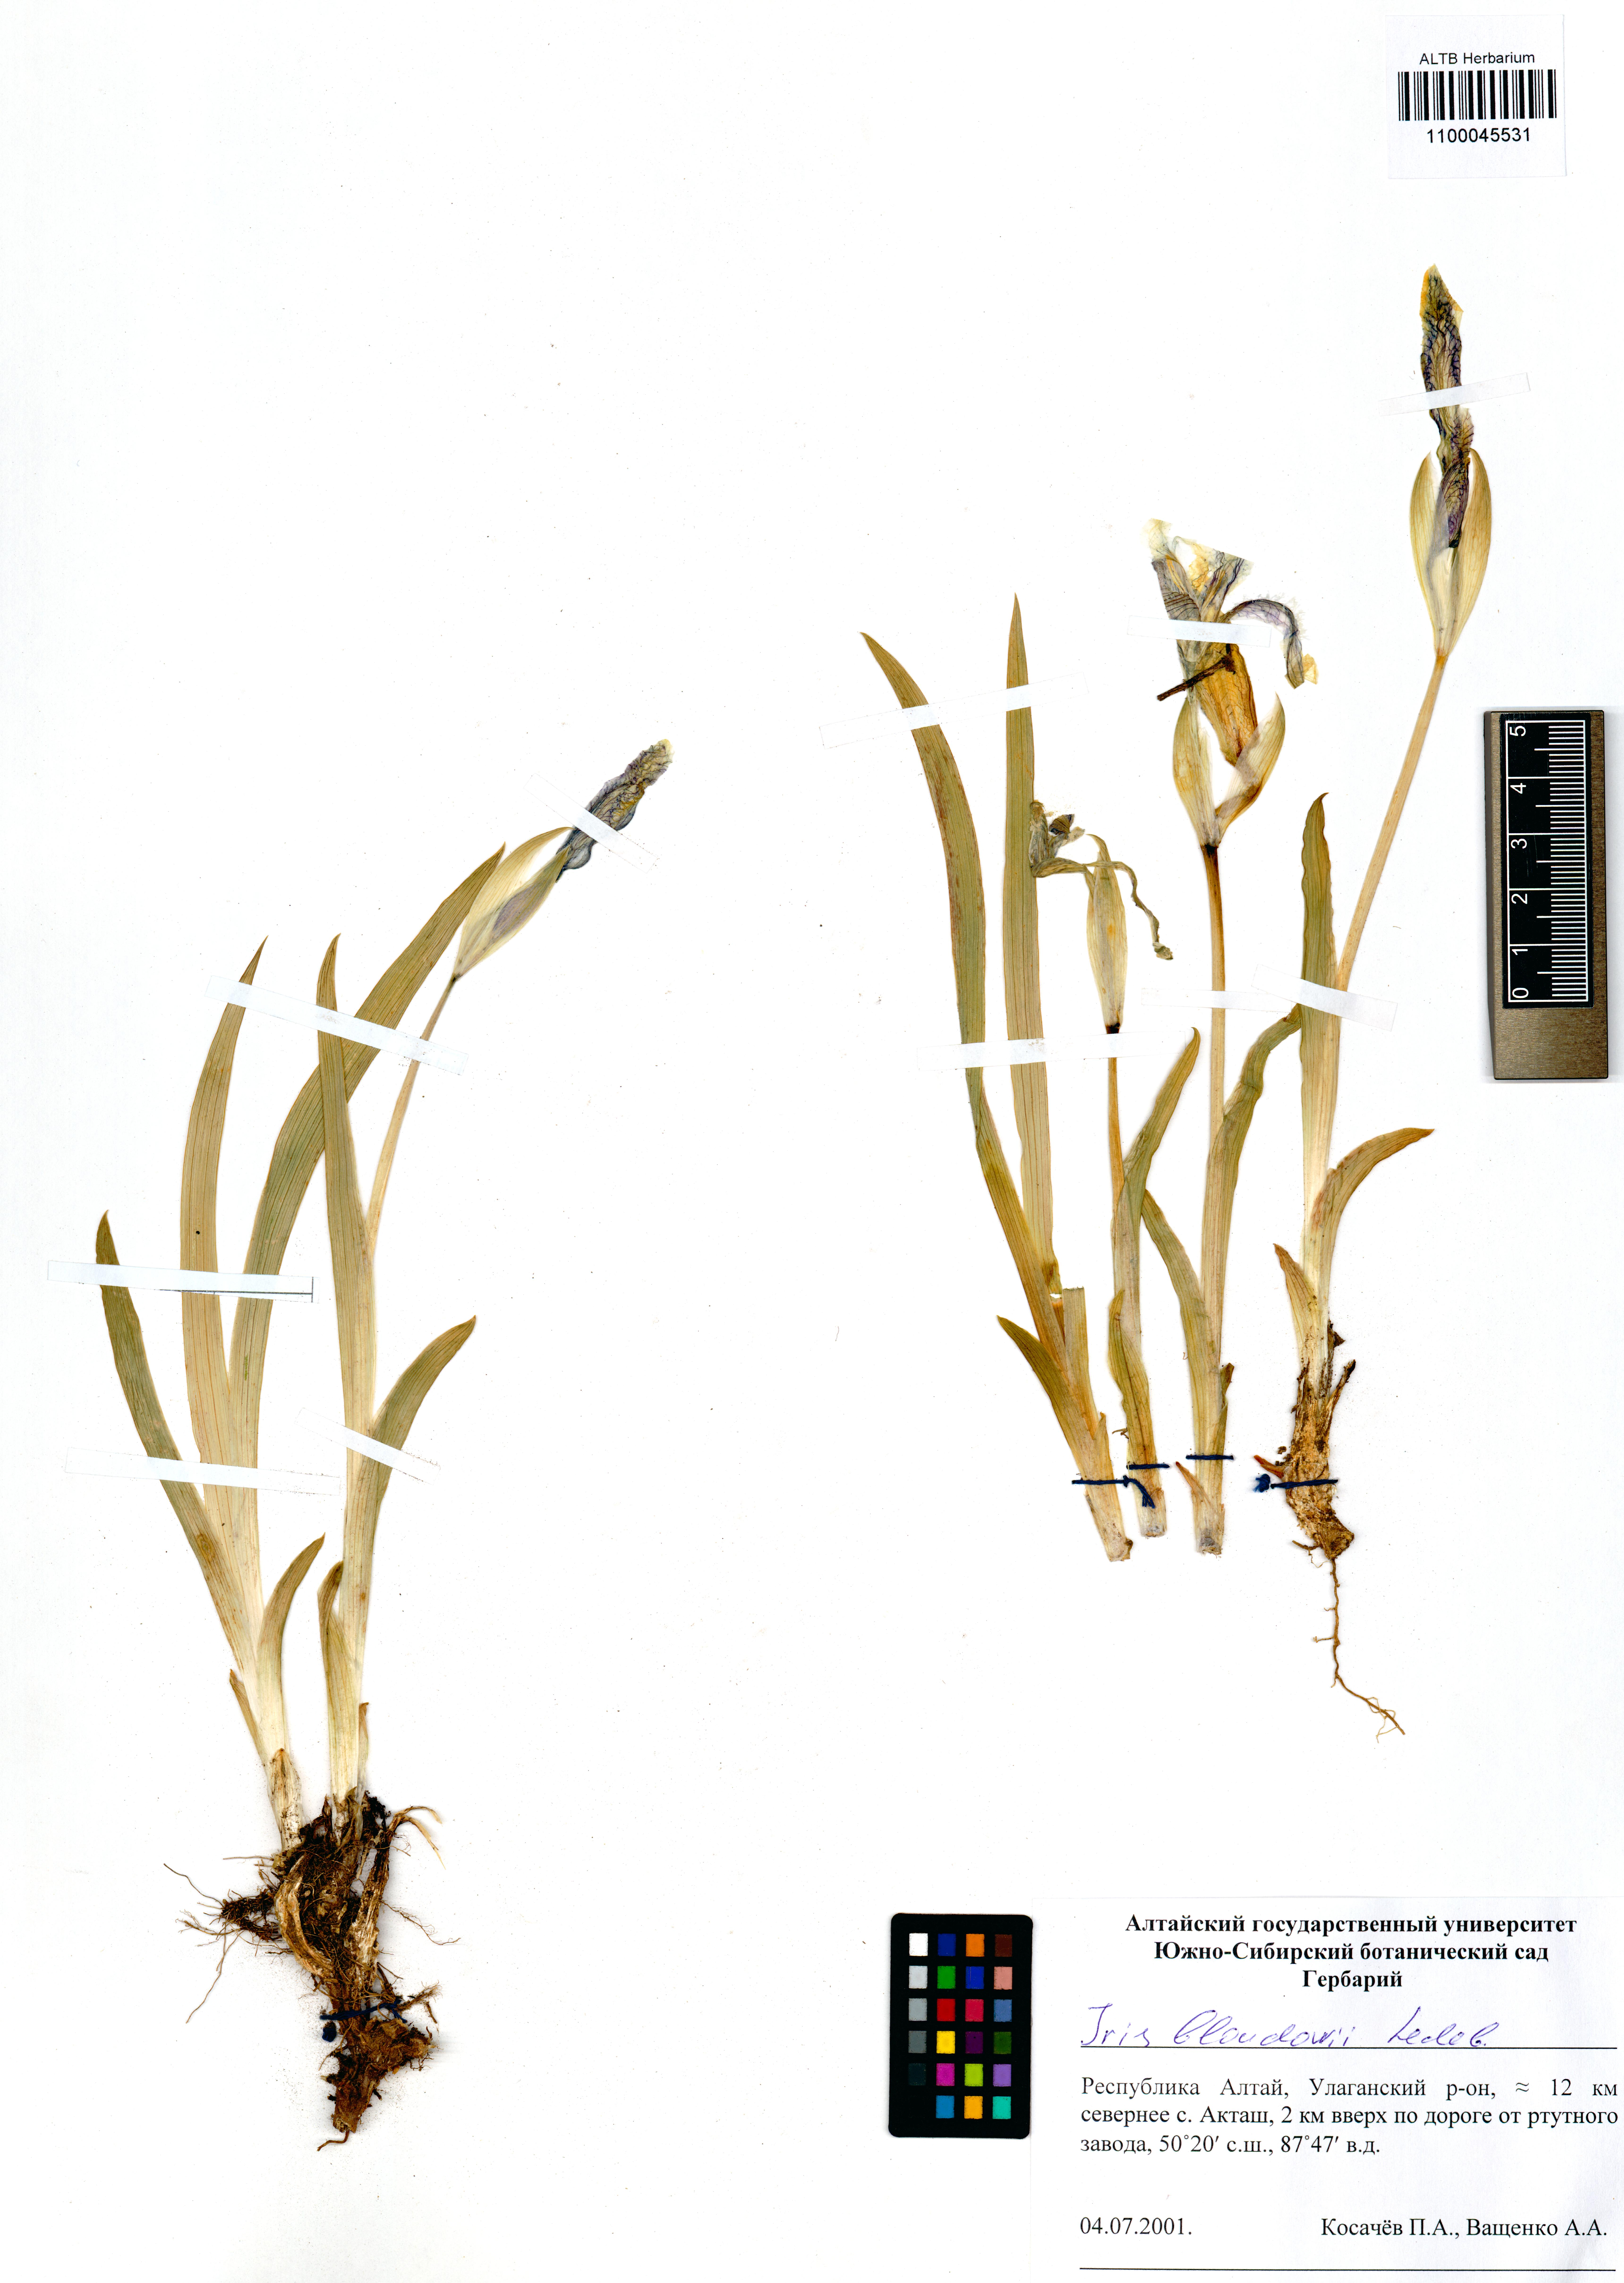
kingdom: Plantae
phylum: Tracheophyta
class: Liliopsida
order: Asparagales
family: Iridaceae
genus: Iris
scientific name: Iris bloudowii
